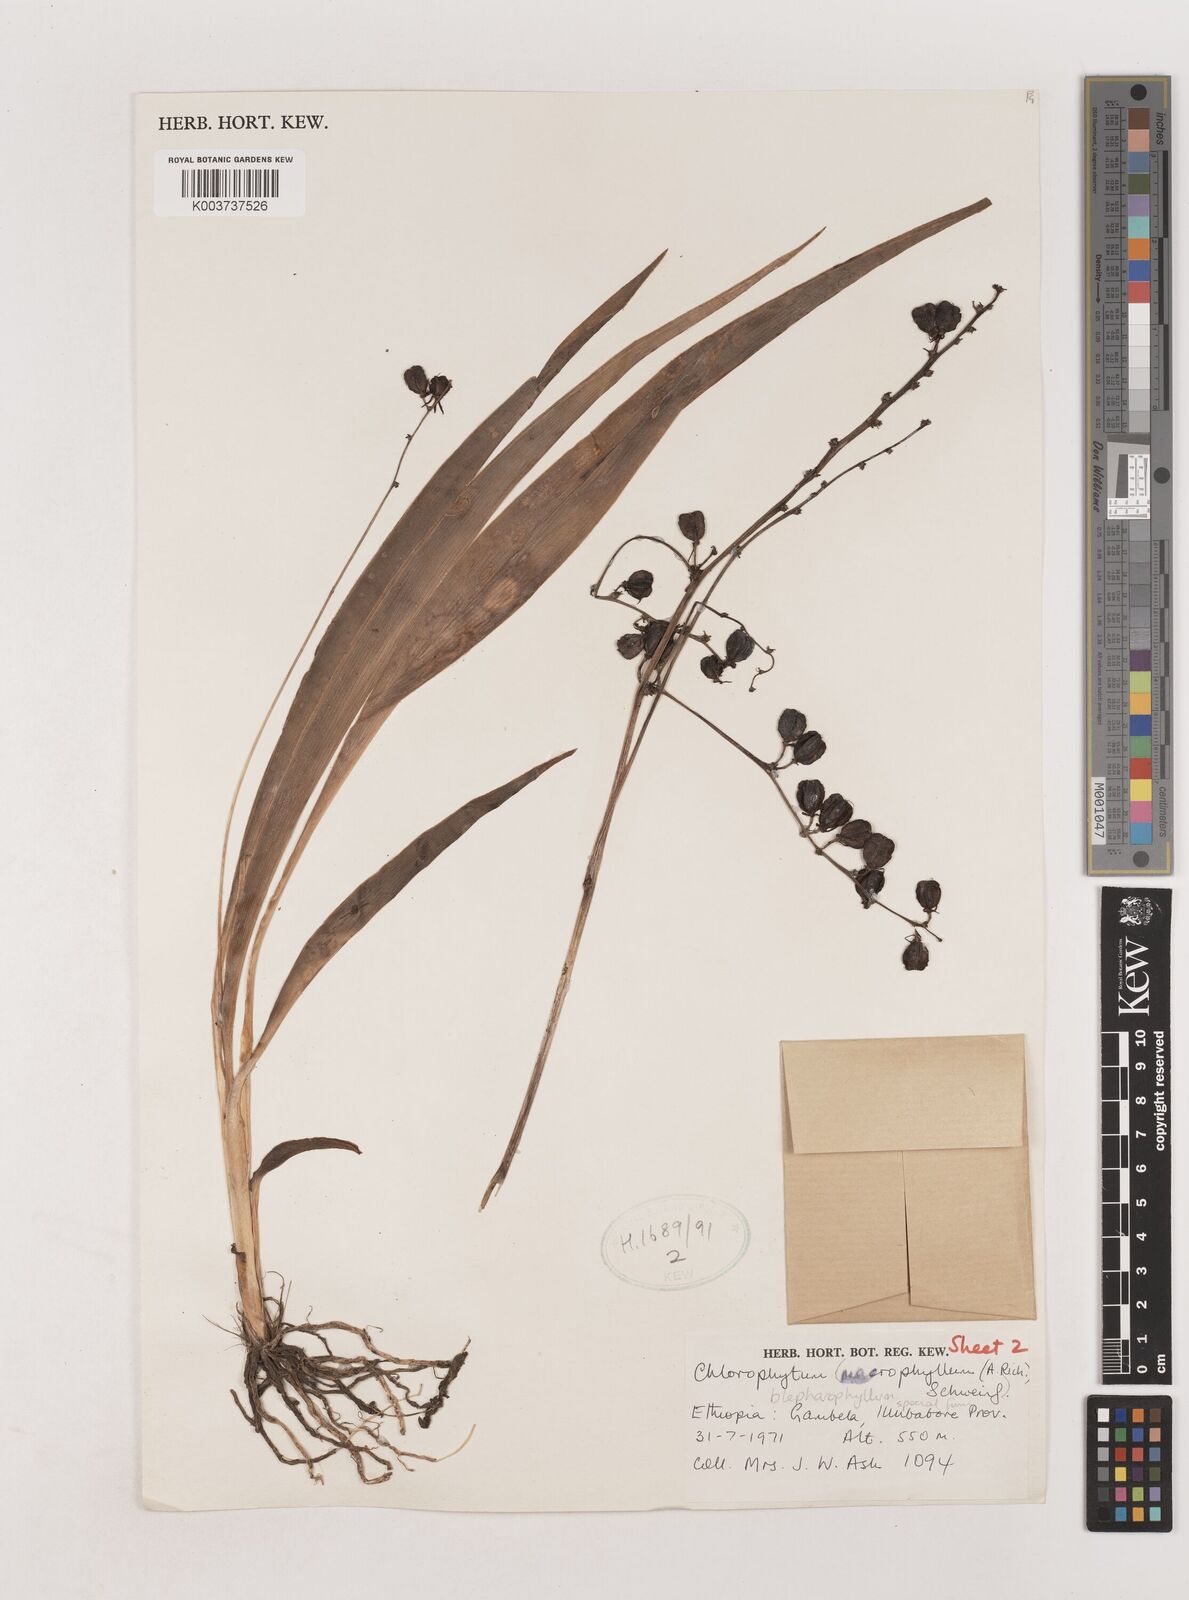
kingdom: Plantae
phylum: Tracheophyta
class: Liliopsida
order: Asparagales
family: Asparagaceae
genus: Chlorophytum
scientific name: Chlorophytum blepharophyllum
